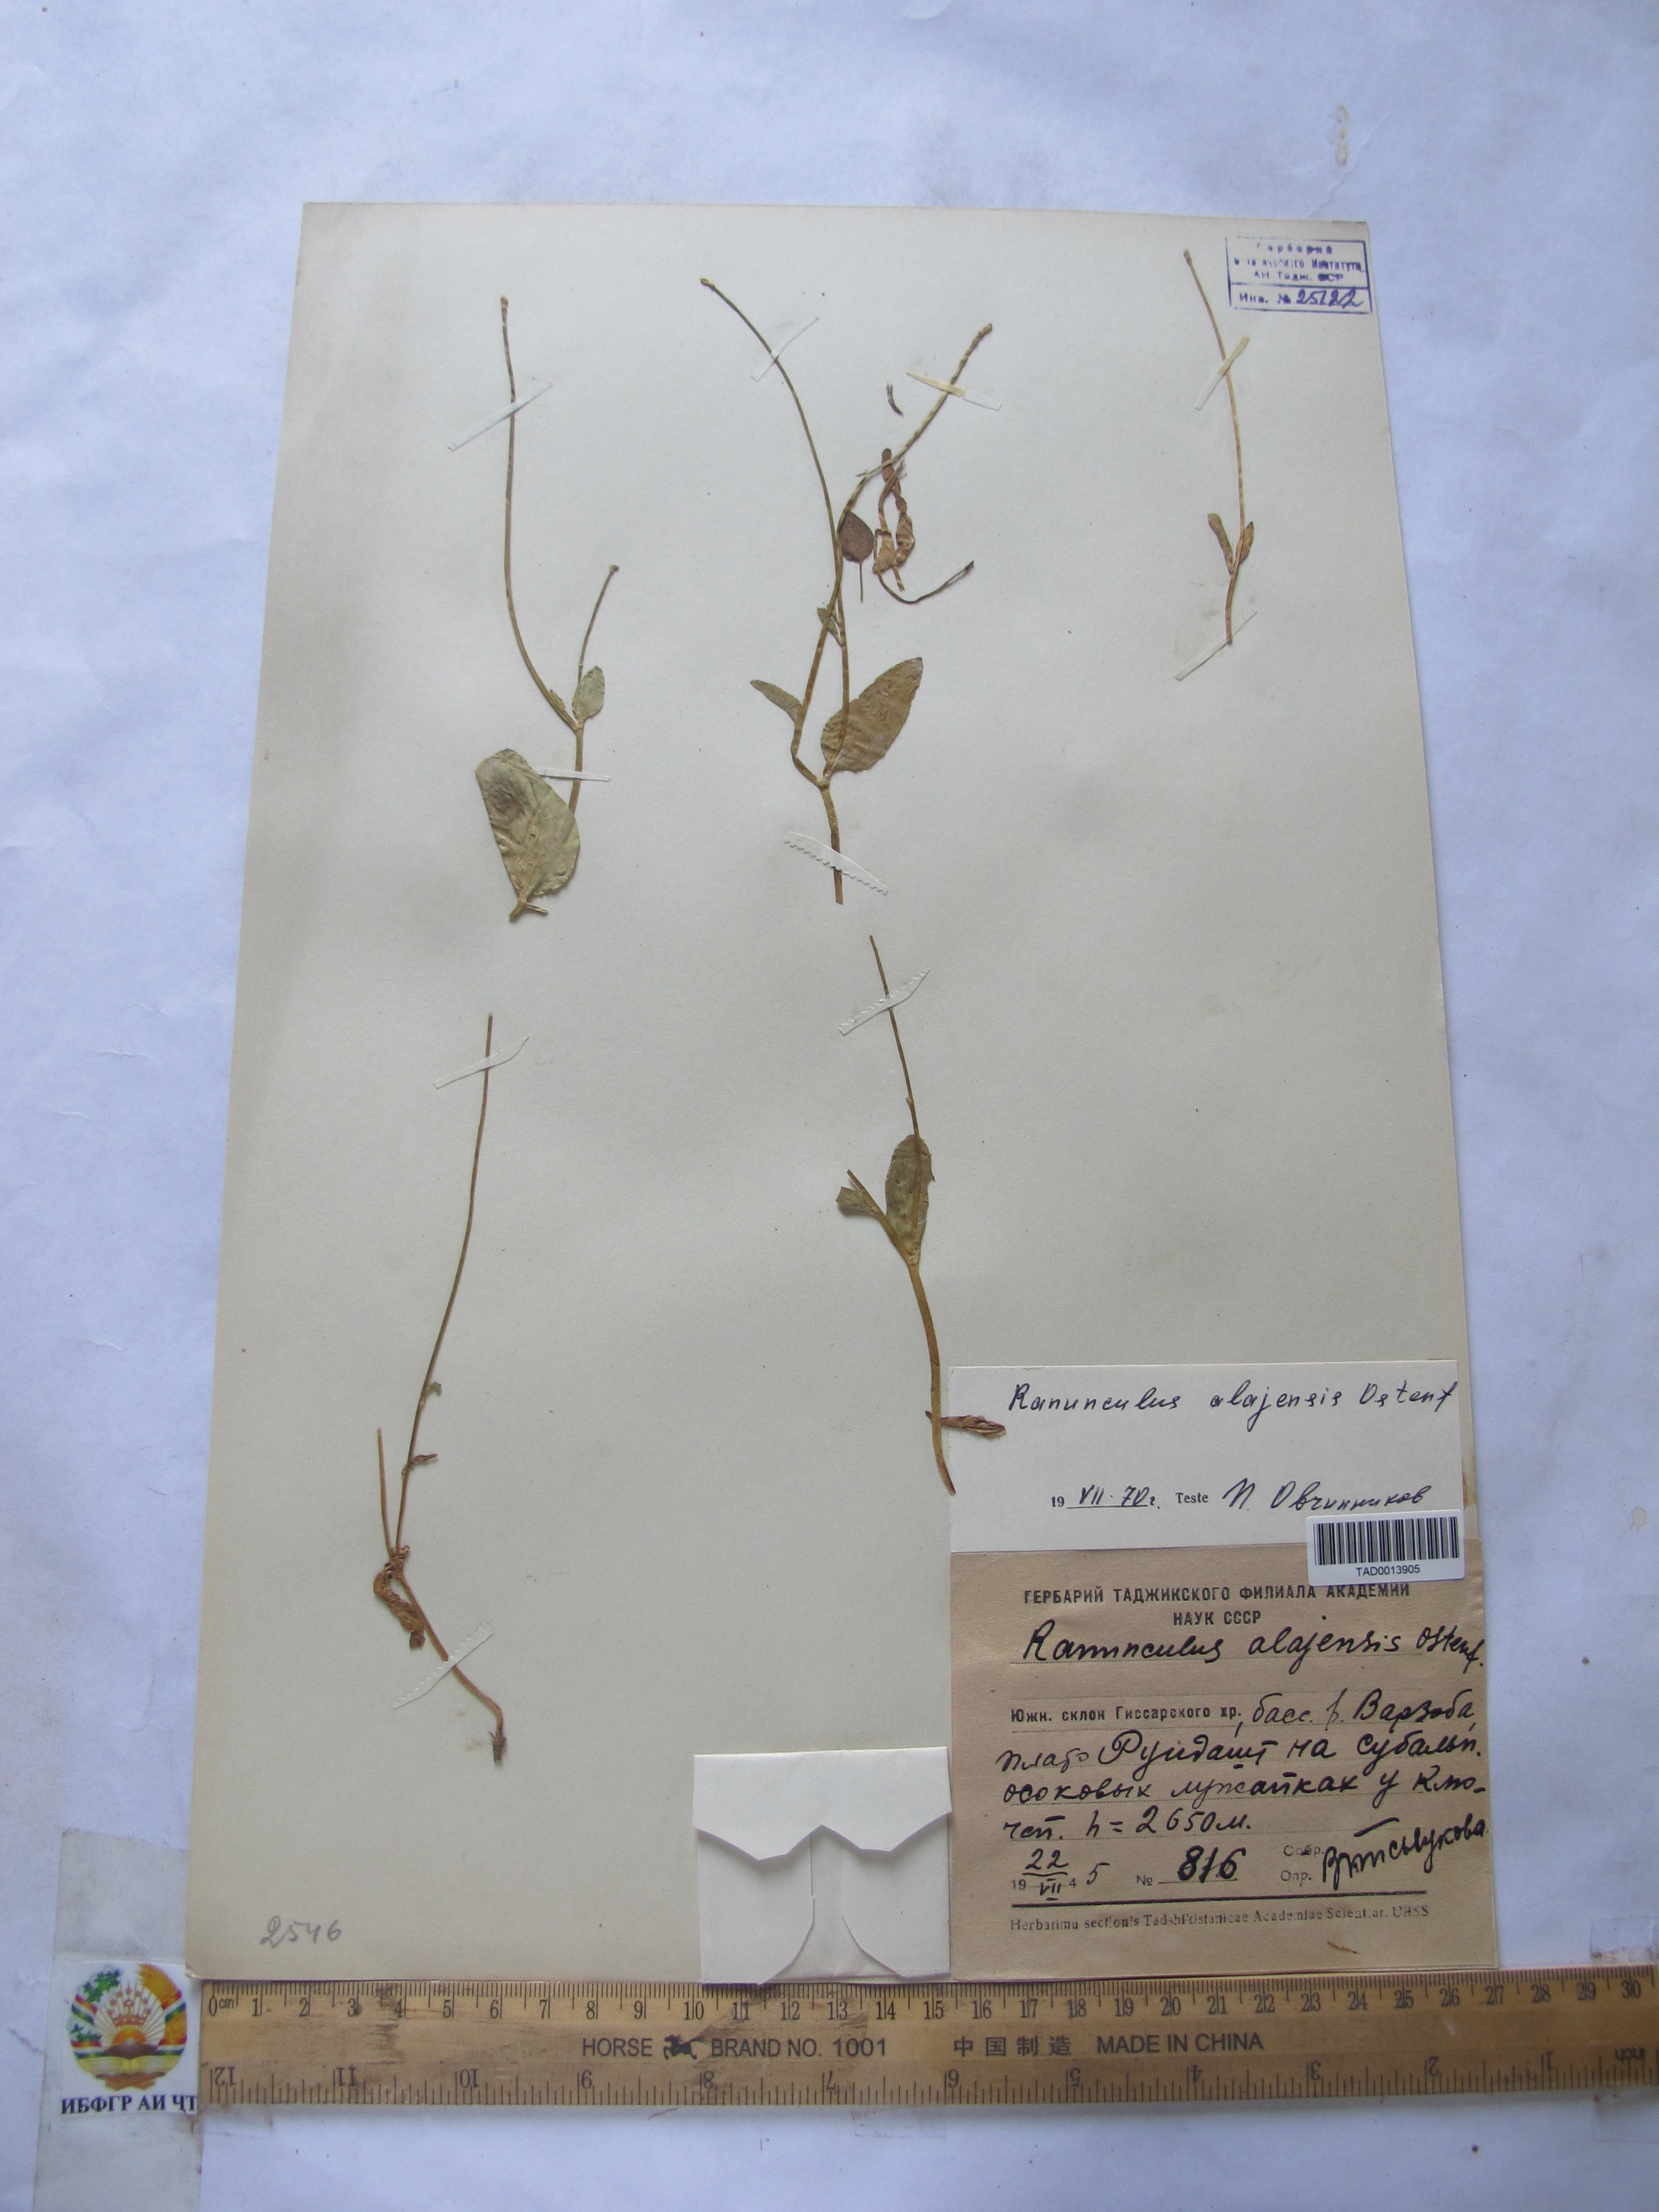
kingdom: Plantae
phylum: Tracheophyta
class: Magnoliopsida
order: Ranunculales
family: Ranunculaceae
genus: Ranunculus
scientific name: Ranunculus alaiensis
